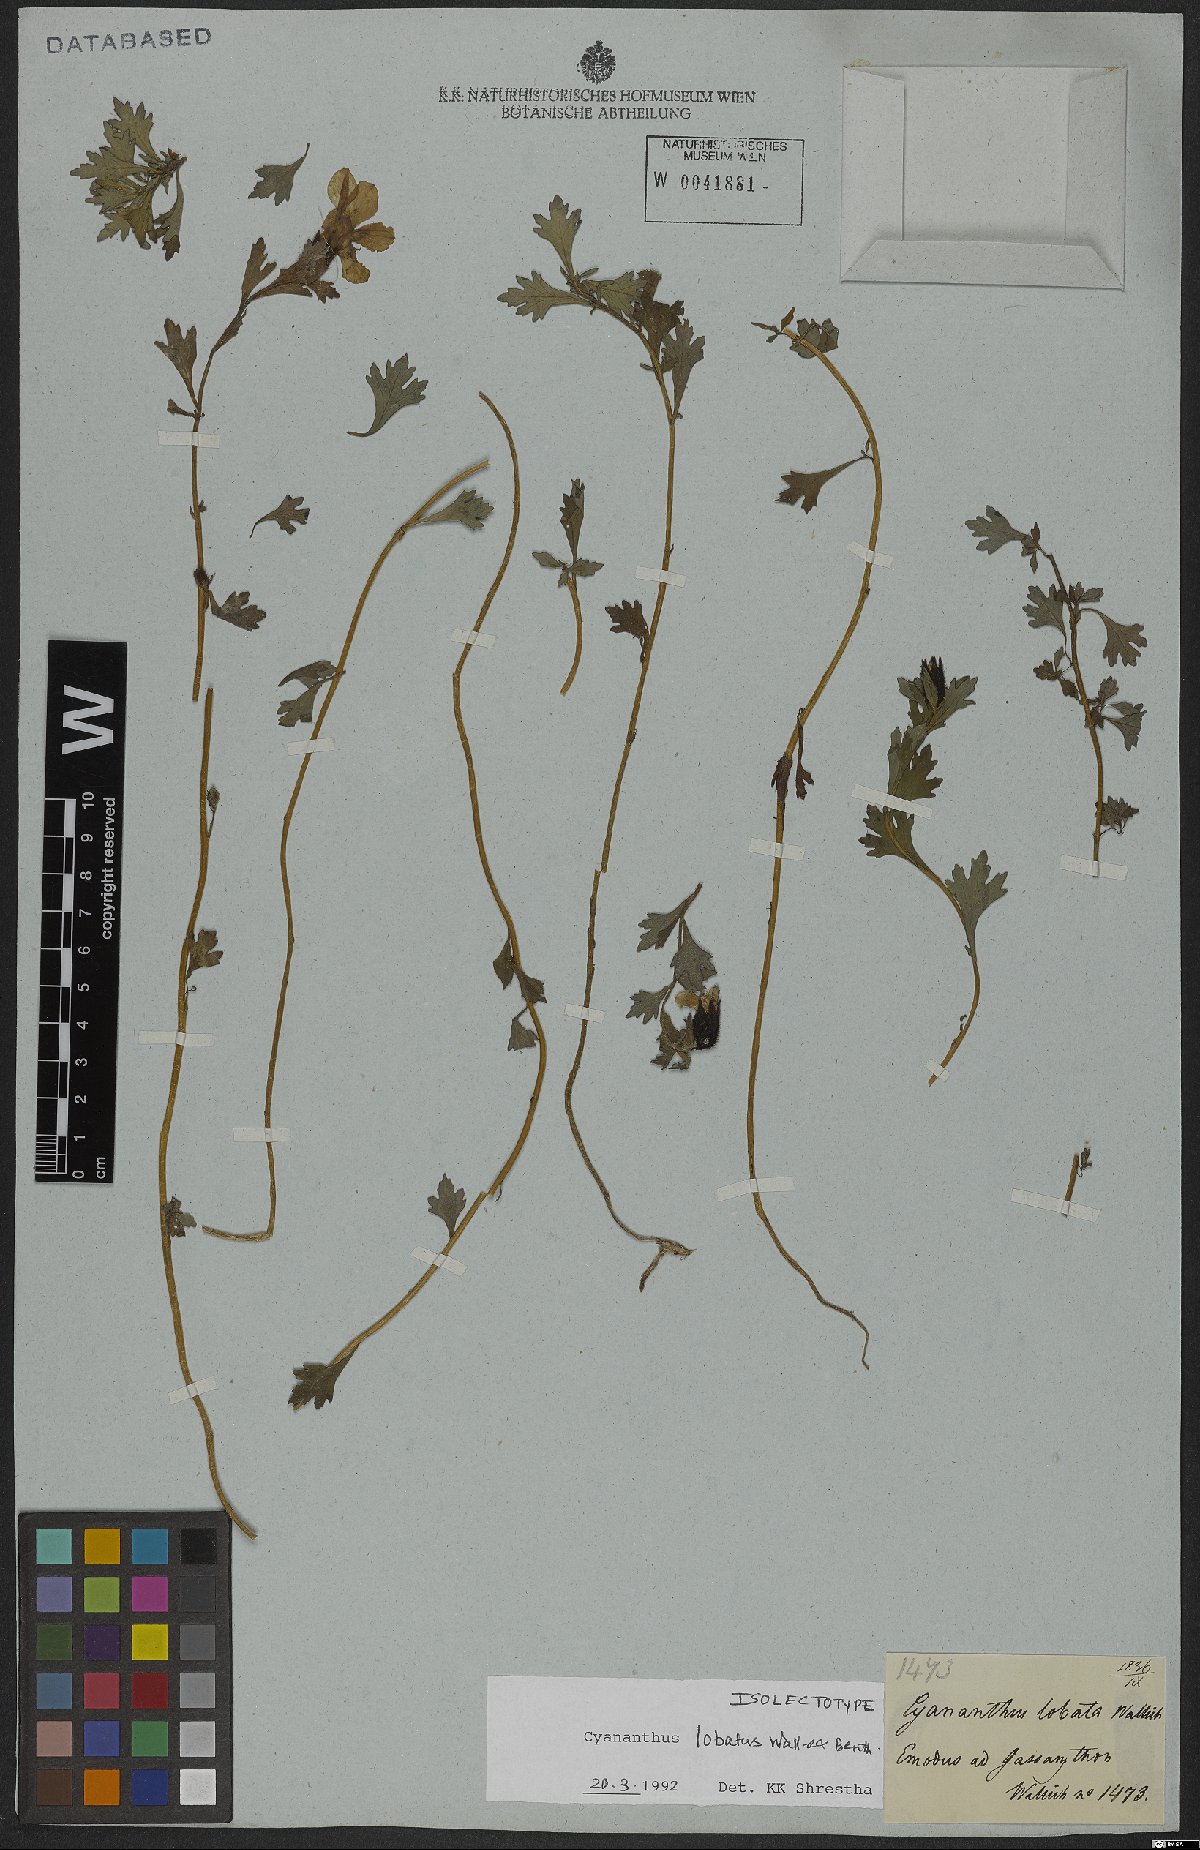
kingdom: Plantae
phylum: Tracheophyta
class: Magnoliopsida
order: Asterales
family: Campanulaceae
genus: Cyananthus
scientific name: Cyananthus lobatus
